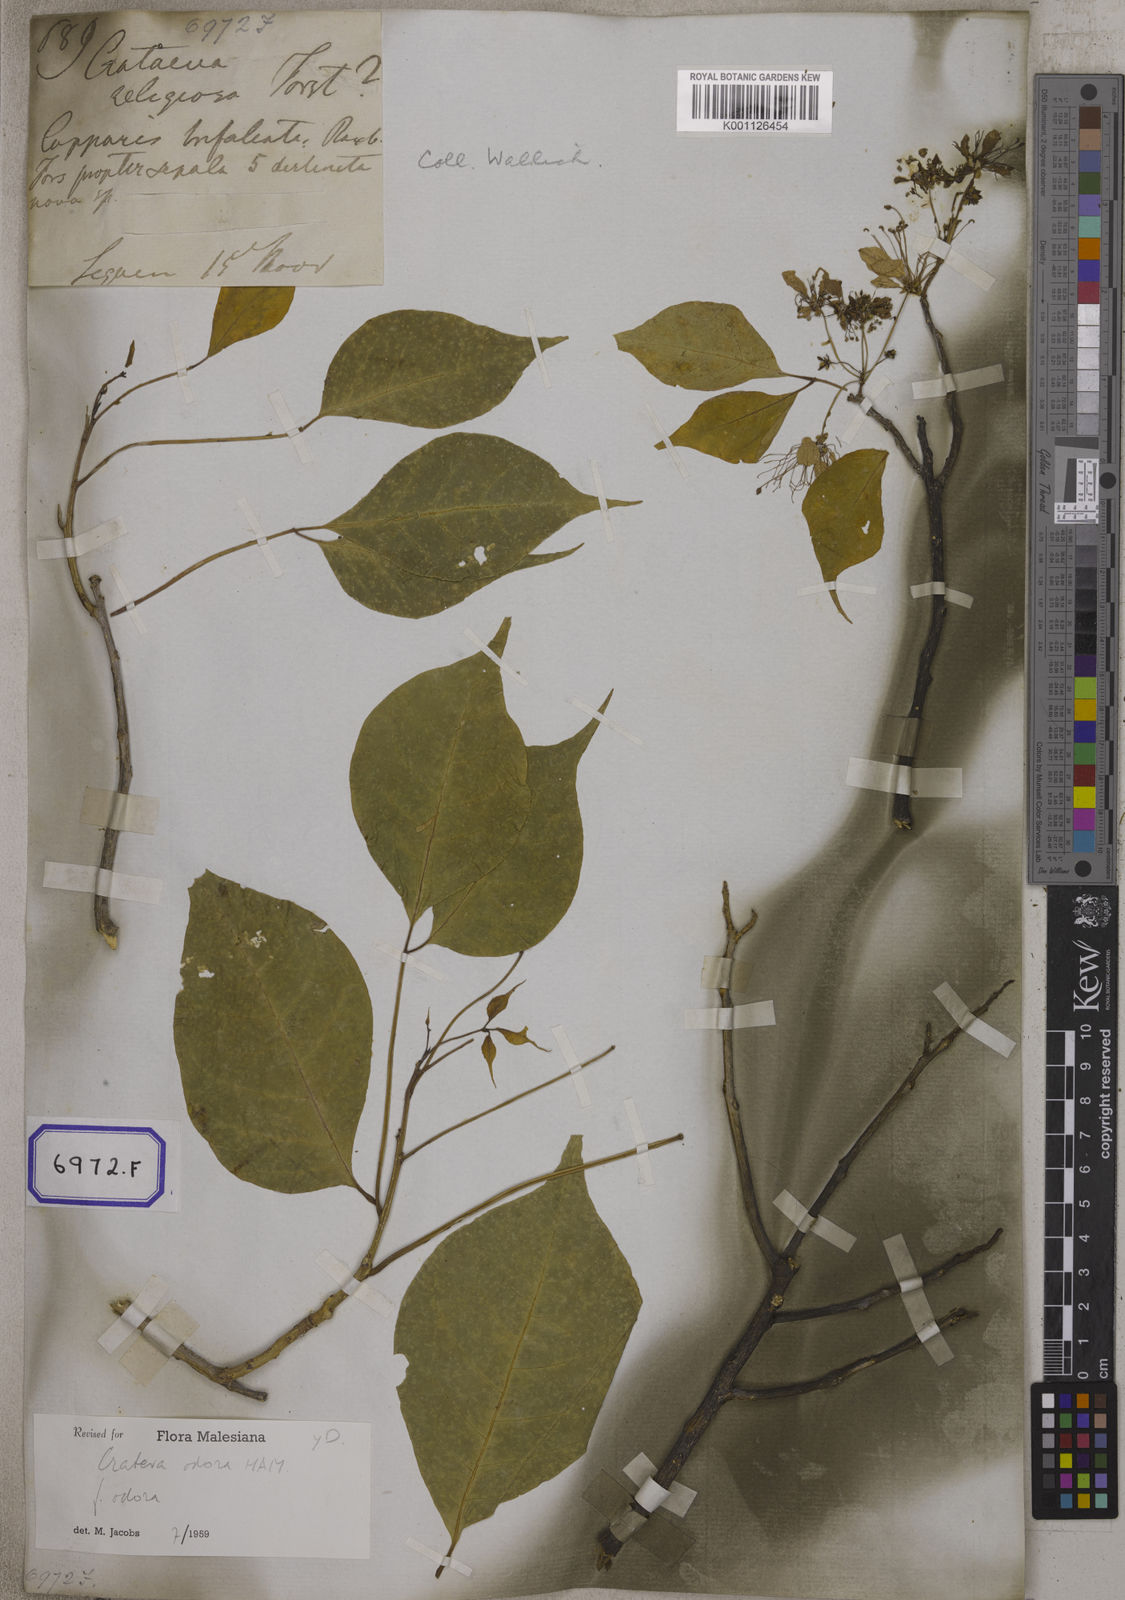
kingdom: Plantae
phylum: Tracheophyta
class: Magnoliopsida
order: Brassicales
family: Capparaceae
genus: Crateva
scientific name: Crateva religiosa
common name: March dalur
